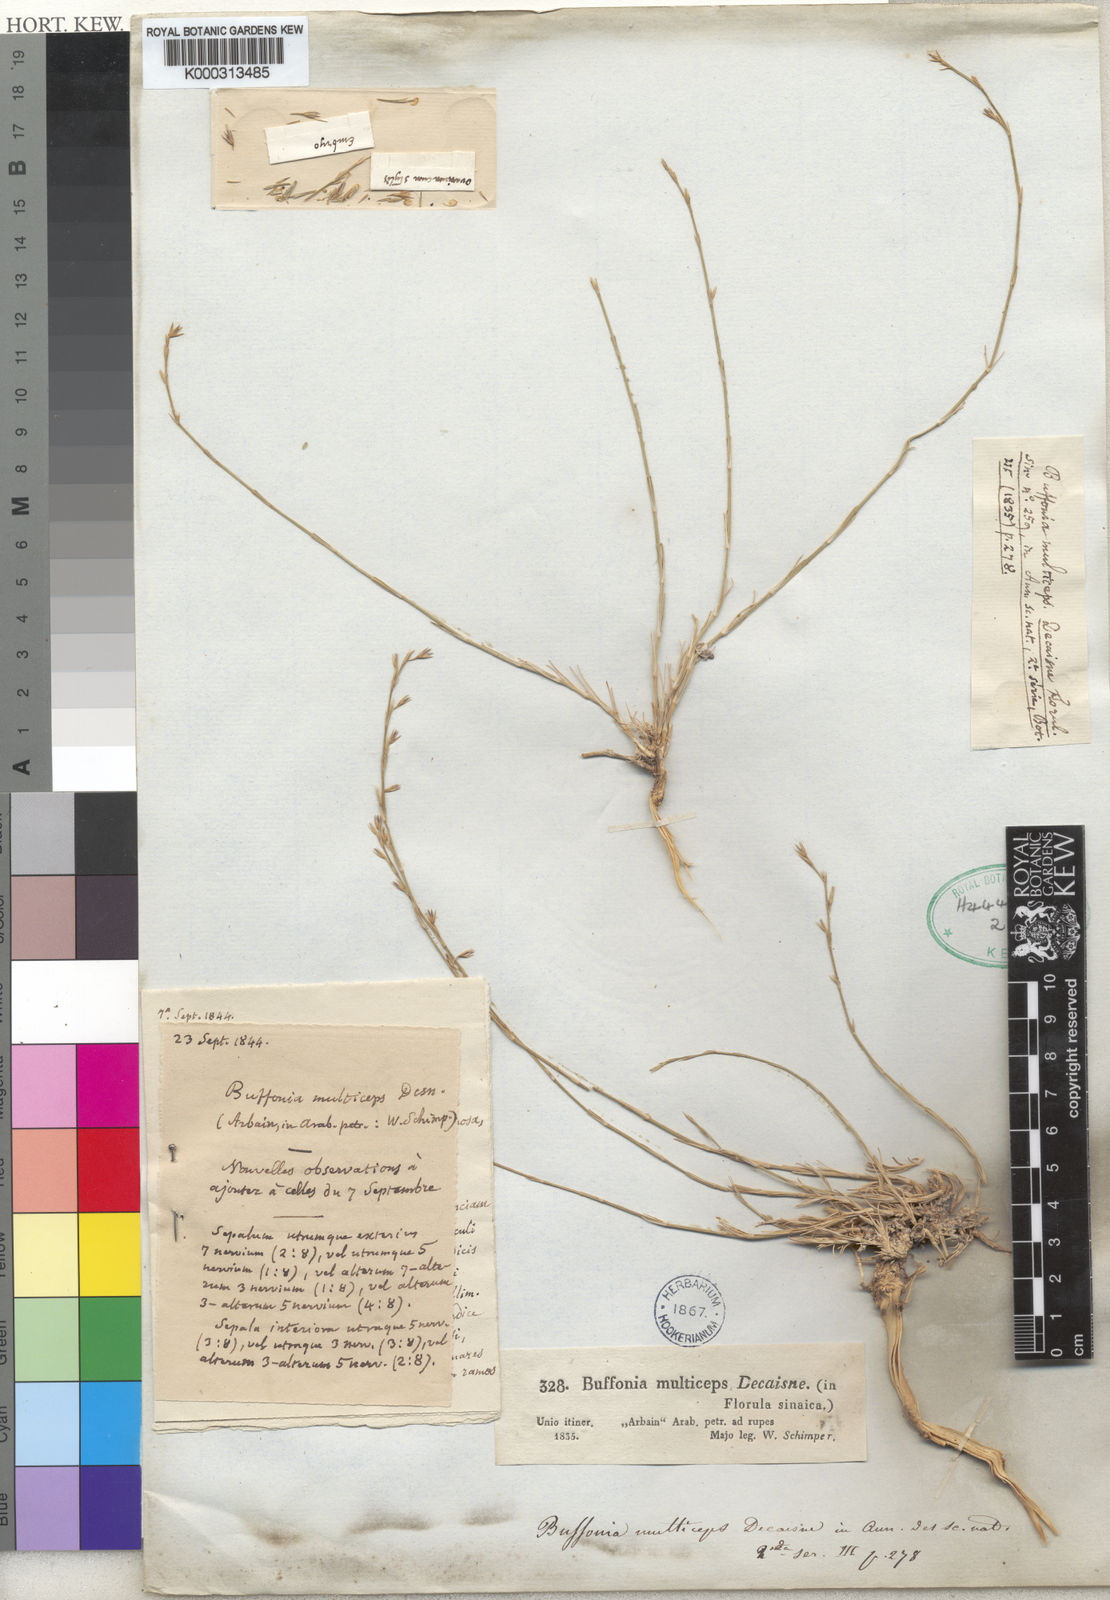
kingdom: Plantae
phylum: Tracheophyta
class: Magnoliopsida
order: Caryophyllales
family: Caryophyllaceae
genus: Bufonia
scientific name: Bufonia multiceps
